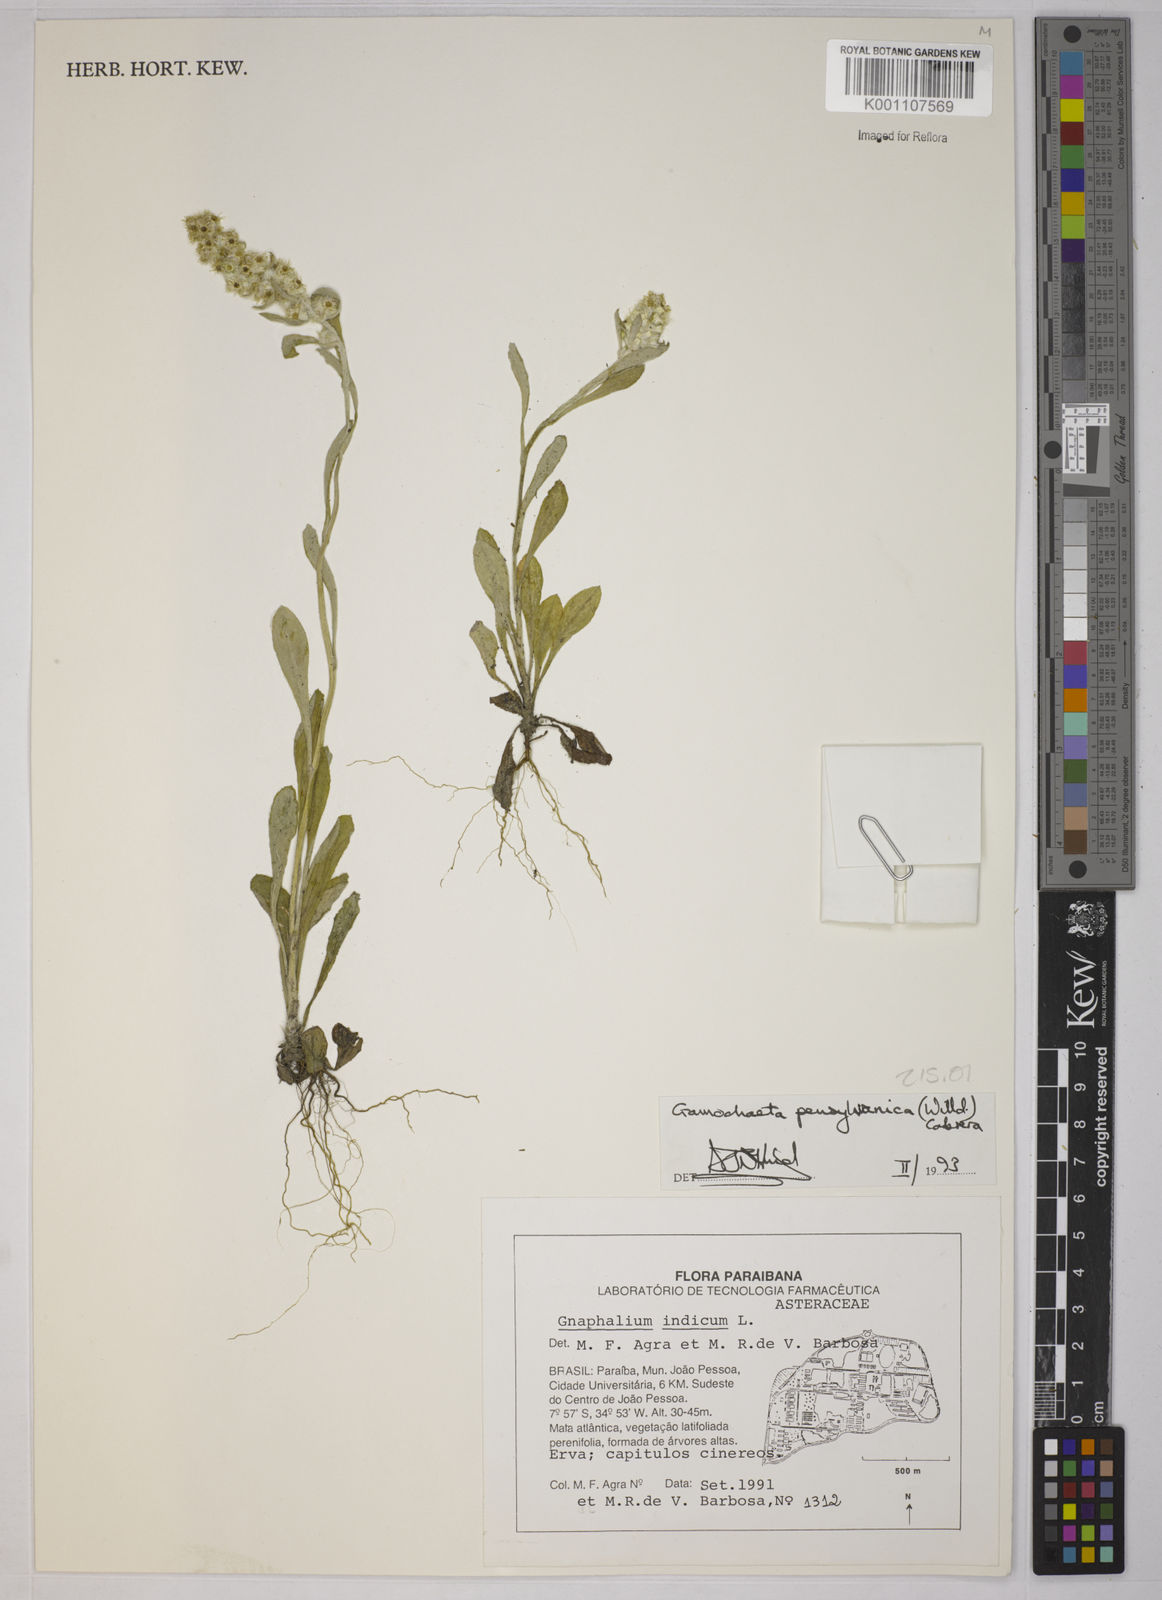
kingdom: Plantae
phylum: Tracheophyta
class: Magnoliopsida
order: Asterales
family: Asteraceae
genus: Gamochaeta
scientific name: Gamochaeta pensylvanica
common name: Pennsylvania everlasting
